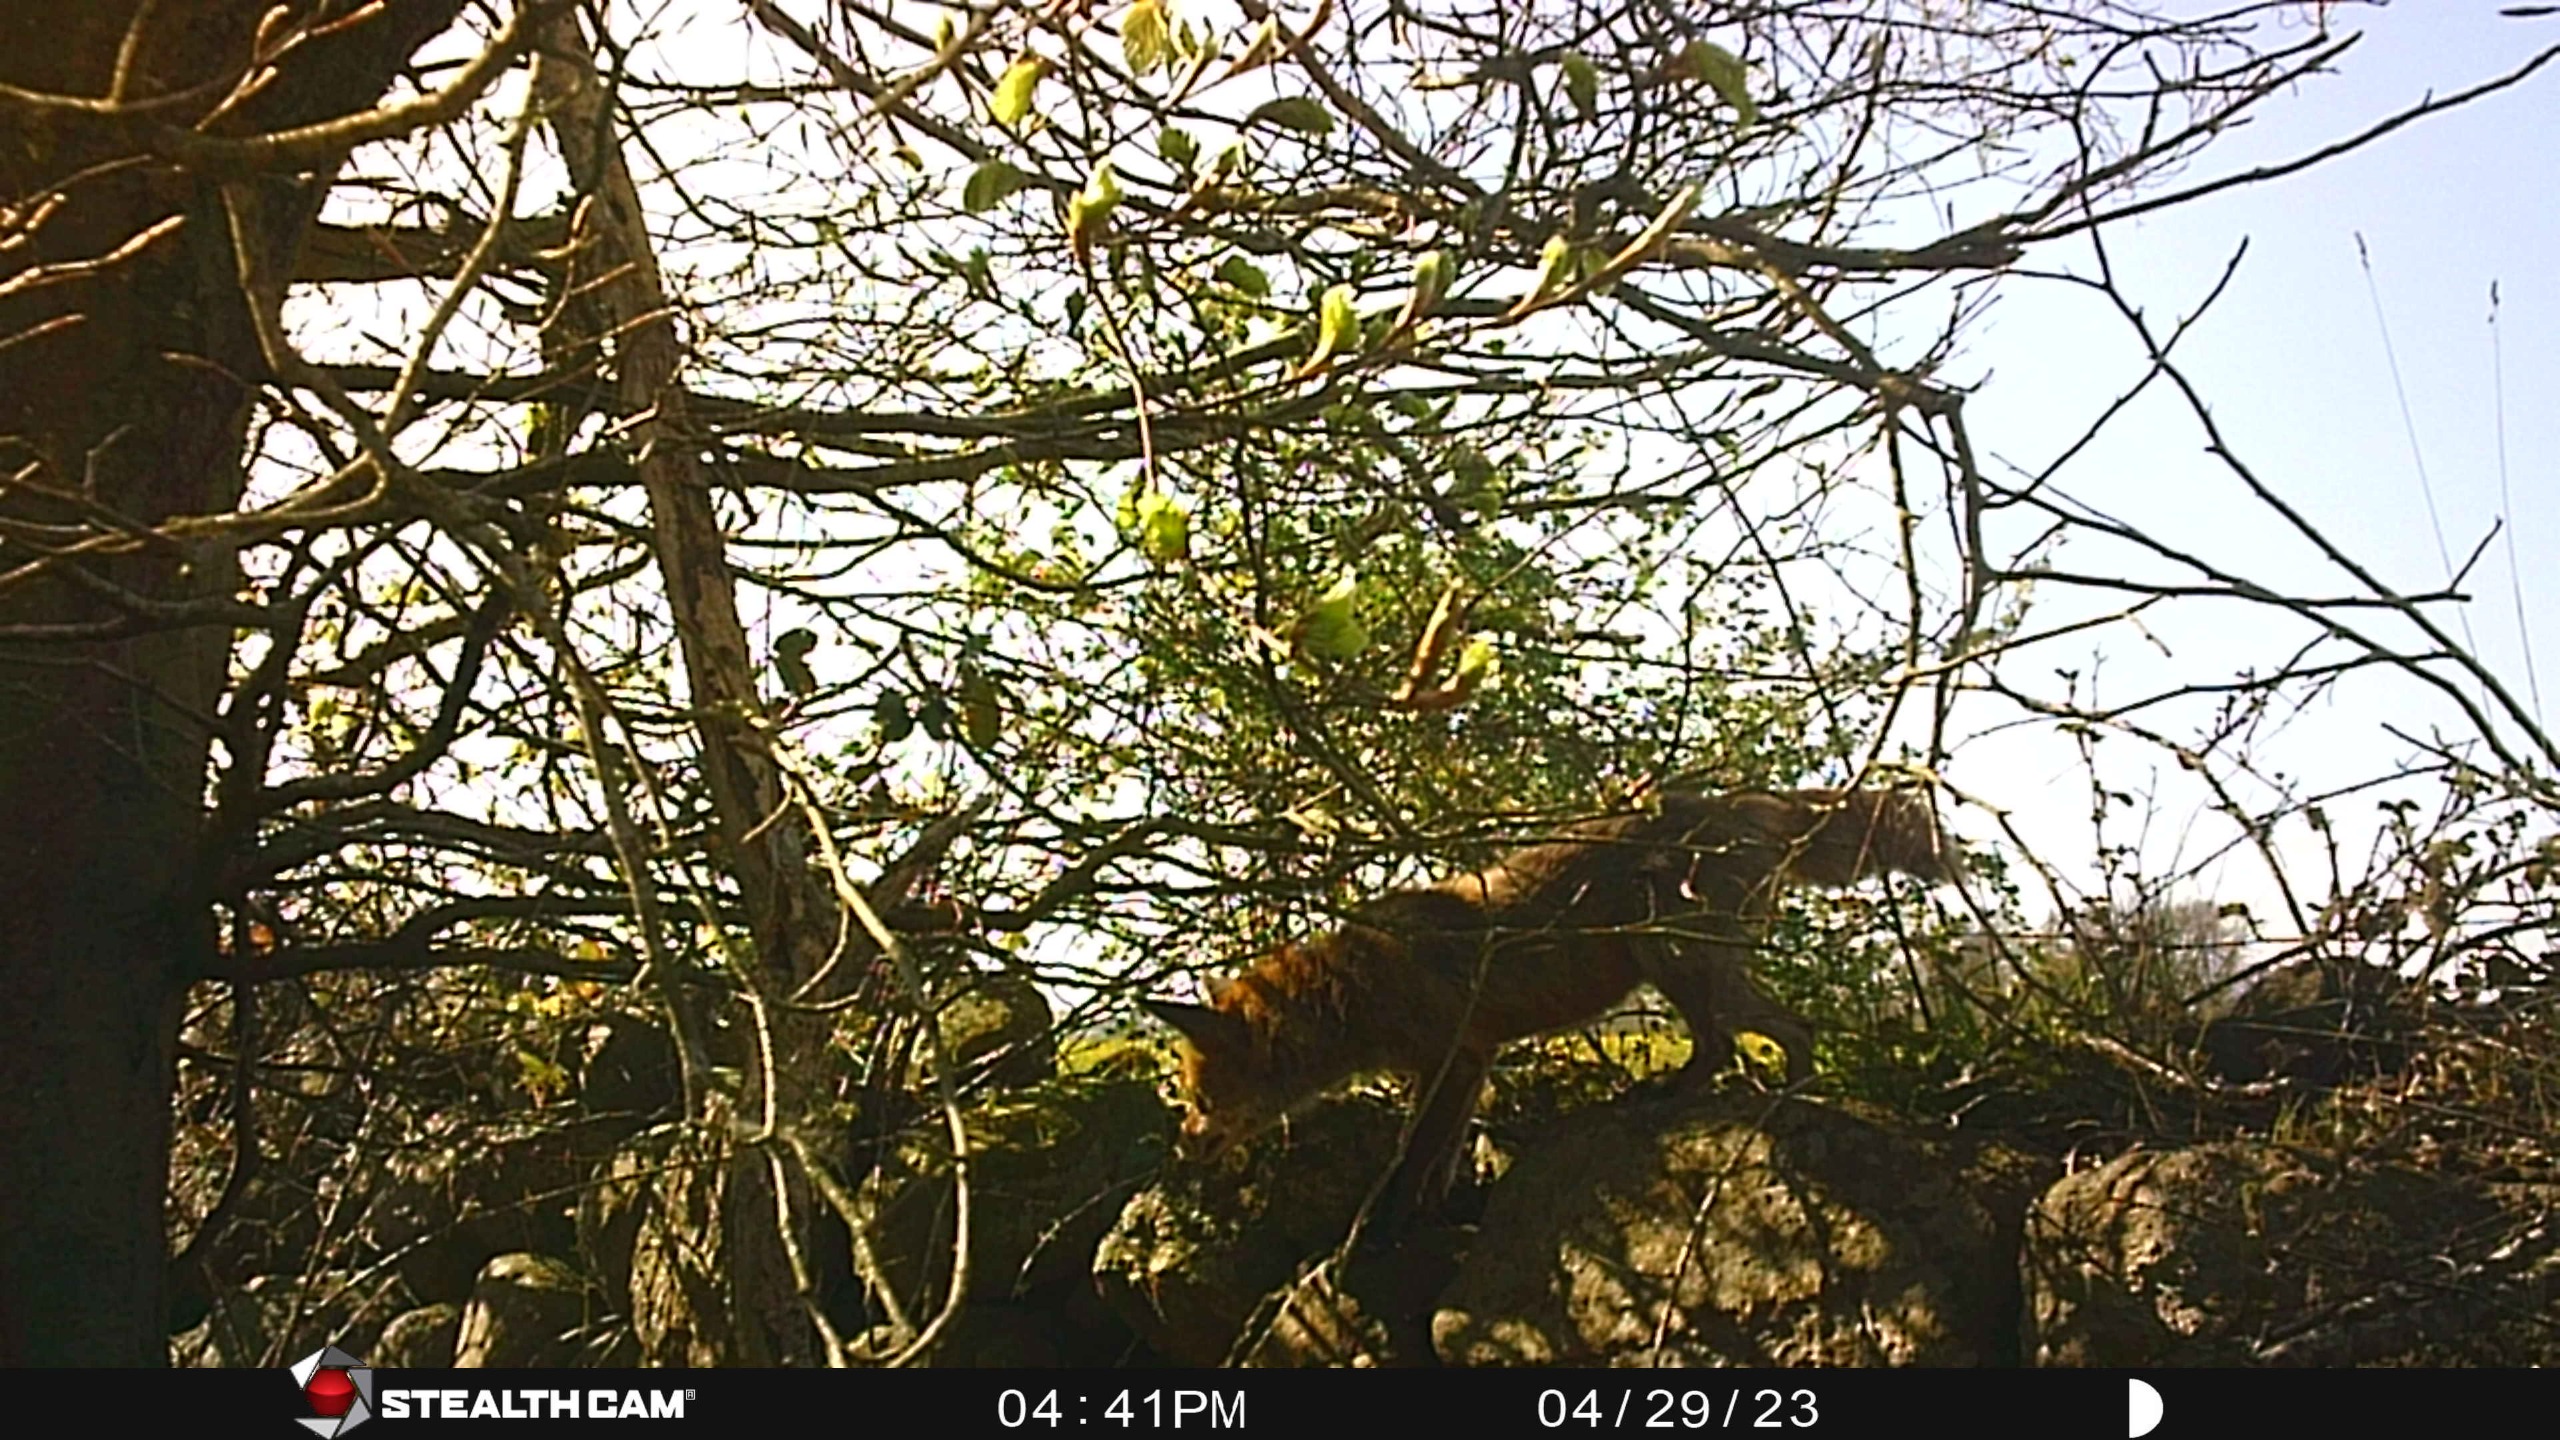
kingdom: Animalia
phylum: Chordata
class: Mammalia
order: Carnivora
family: Canidae
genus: Vulpes
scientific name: Vulpes vulpes
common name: Ræv
